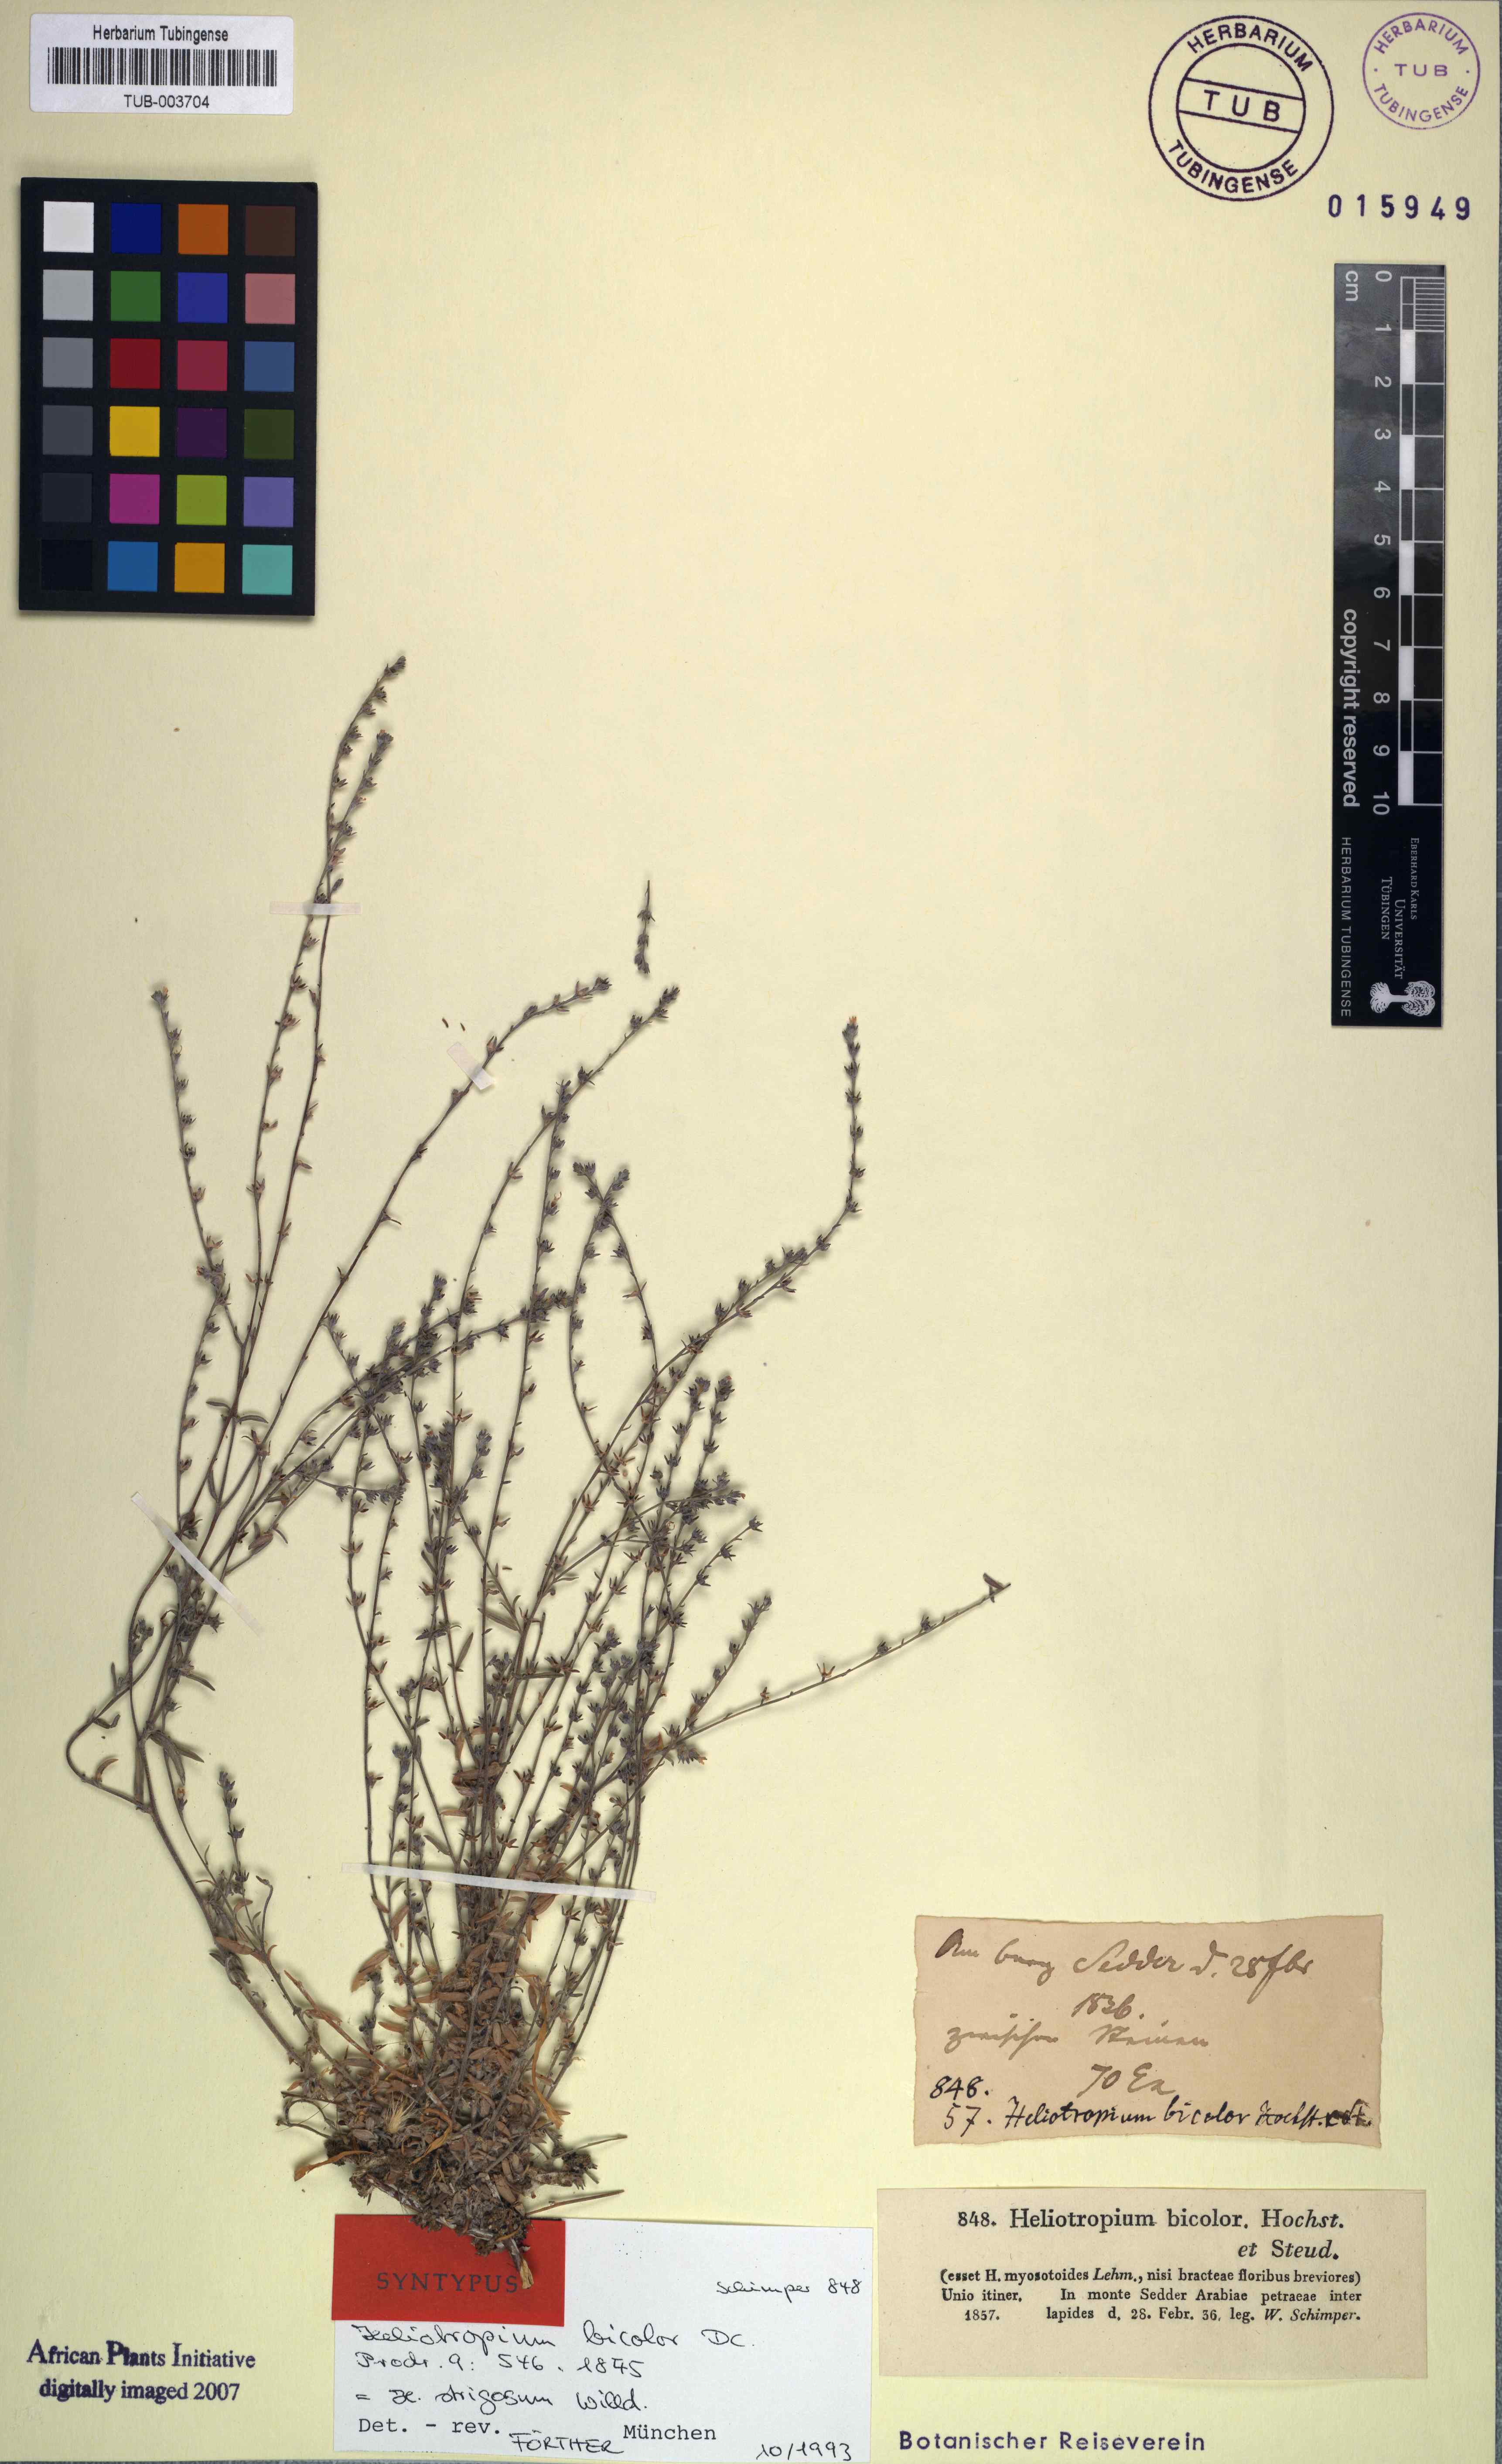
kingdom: Plantae
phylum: Tracheophyta
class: Magnoliopsida
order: Boraginales
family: Heliotropiaceae
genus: Euploca
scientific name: Euploca strigosa
